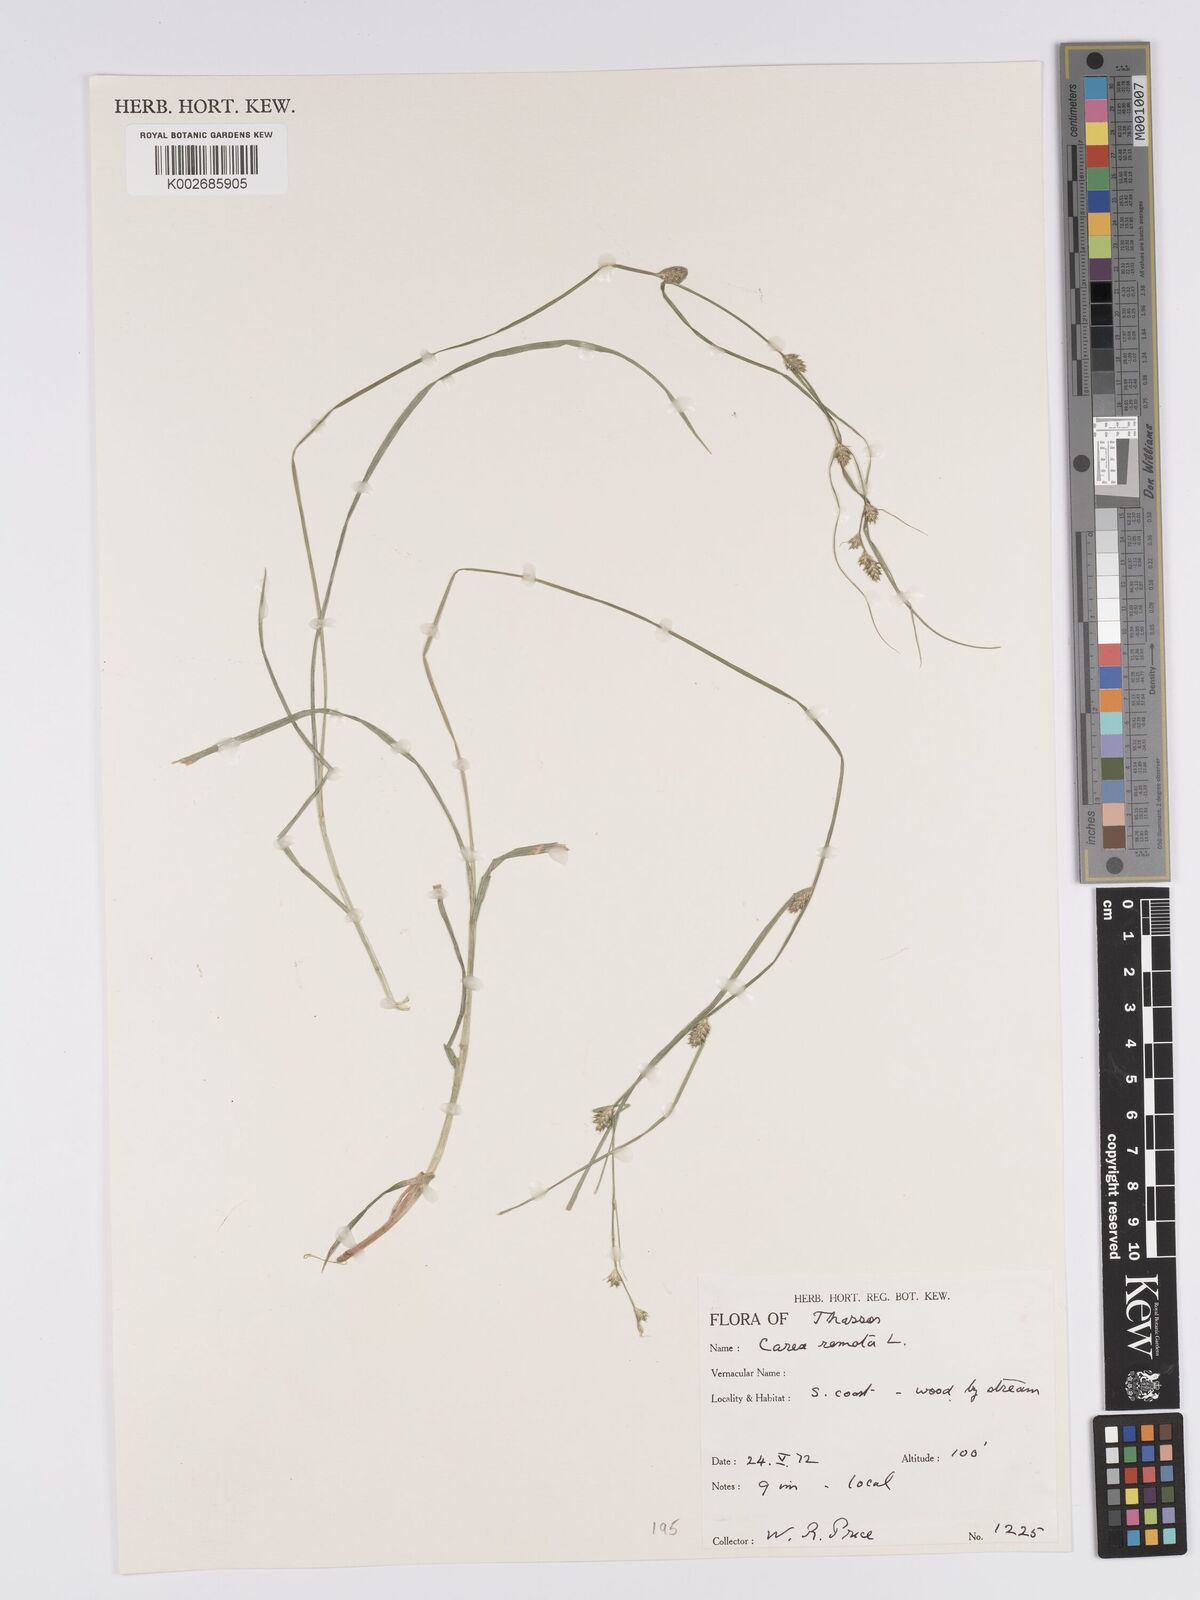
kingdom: Plantae
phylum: Tracheophyta
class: Liliopsida
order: Poales
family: Cyperaceae
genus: Carex
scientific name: Carex remota
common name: Remote sedge
